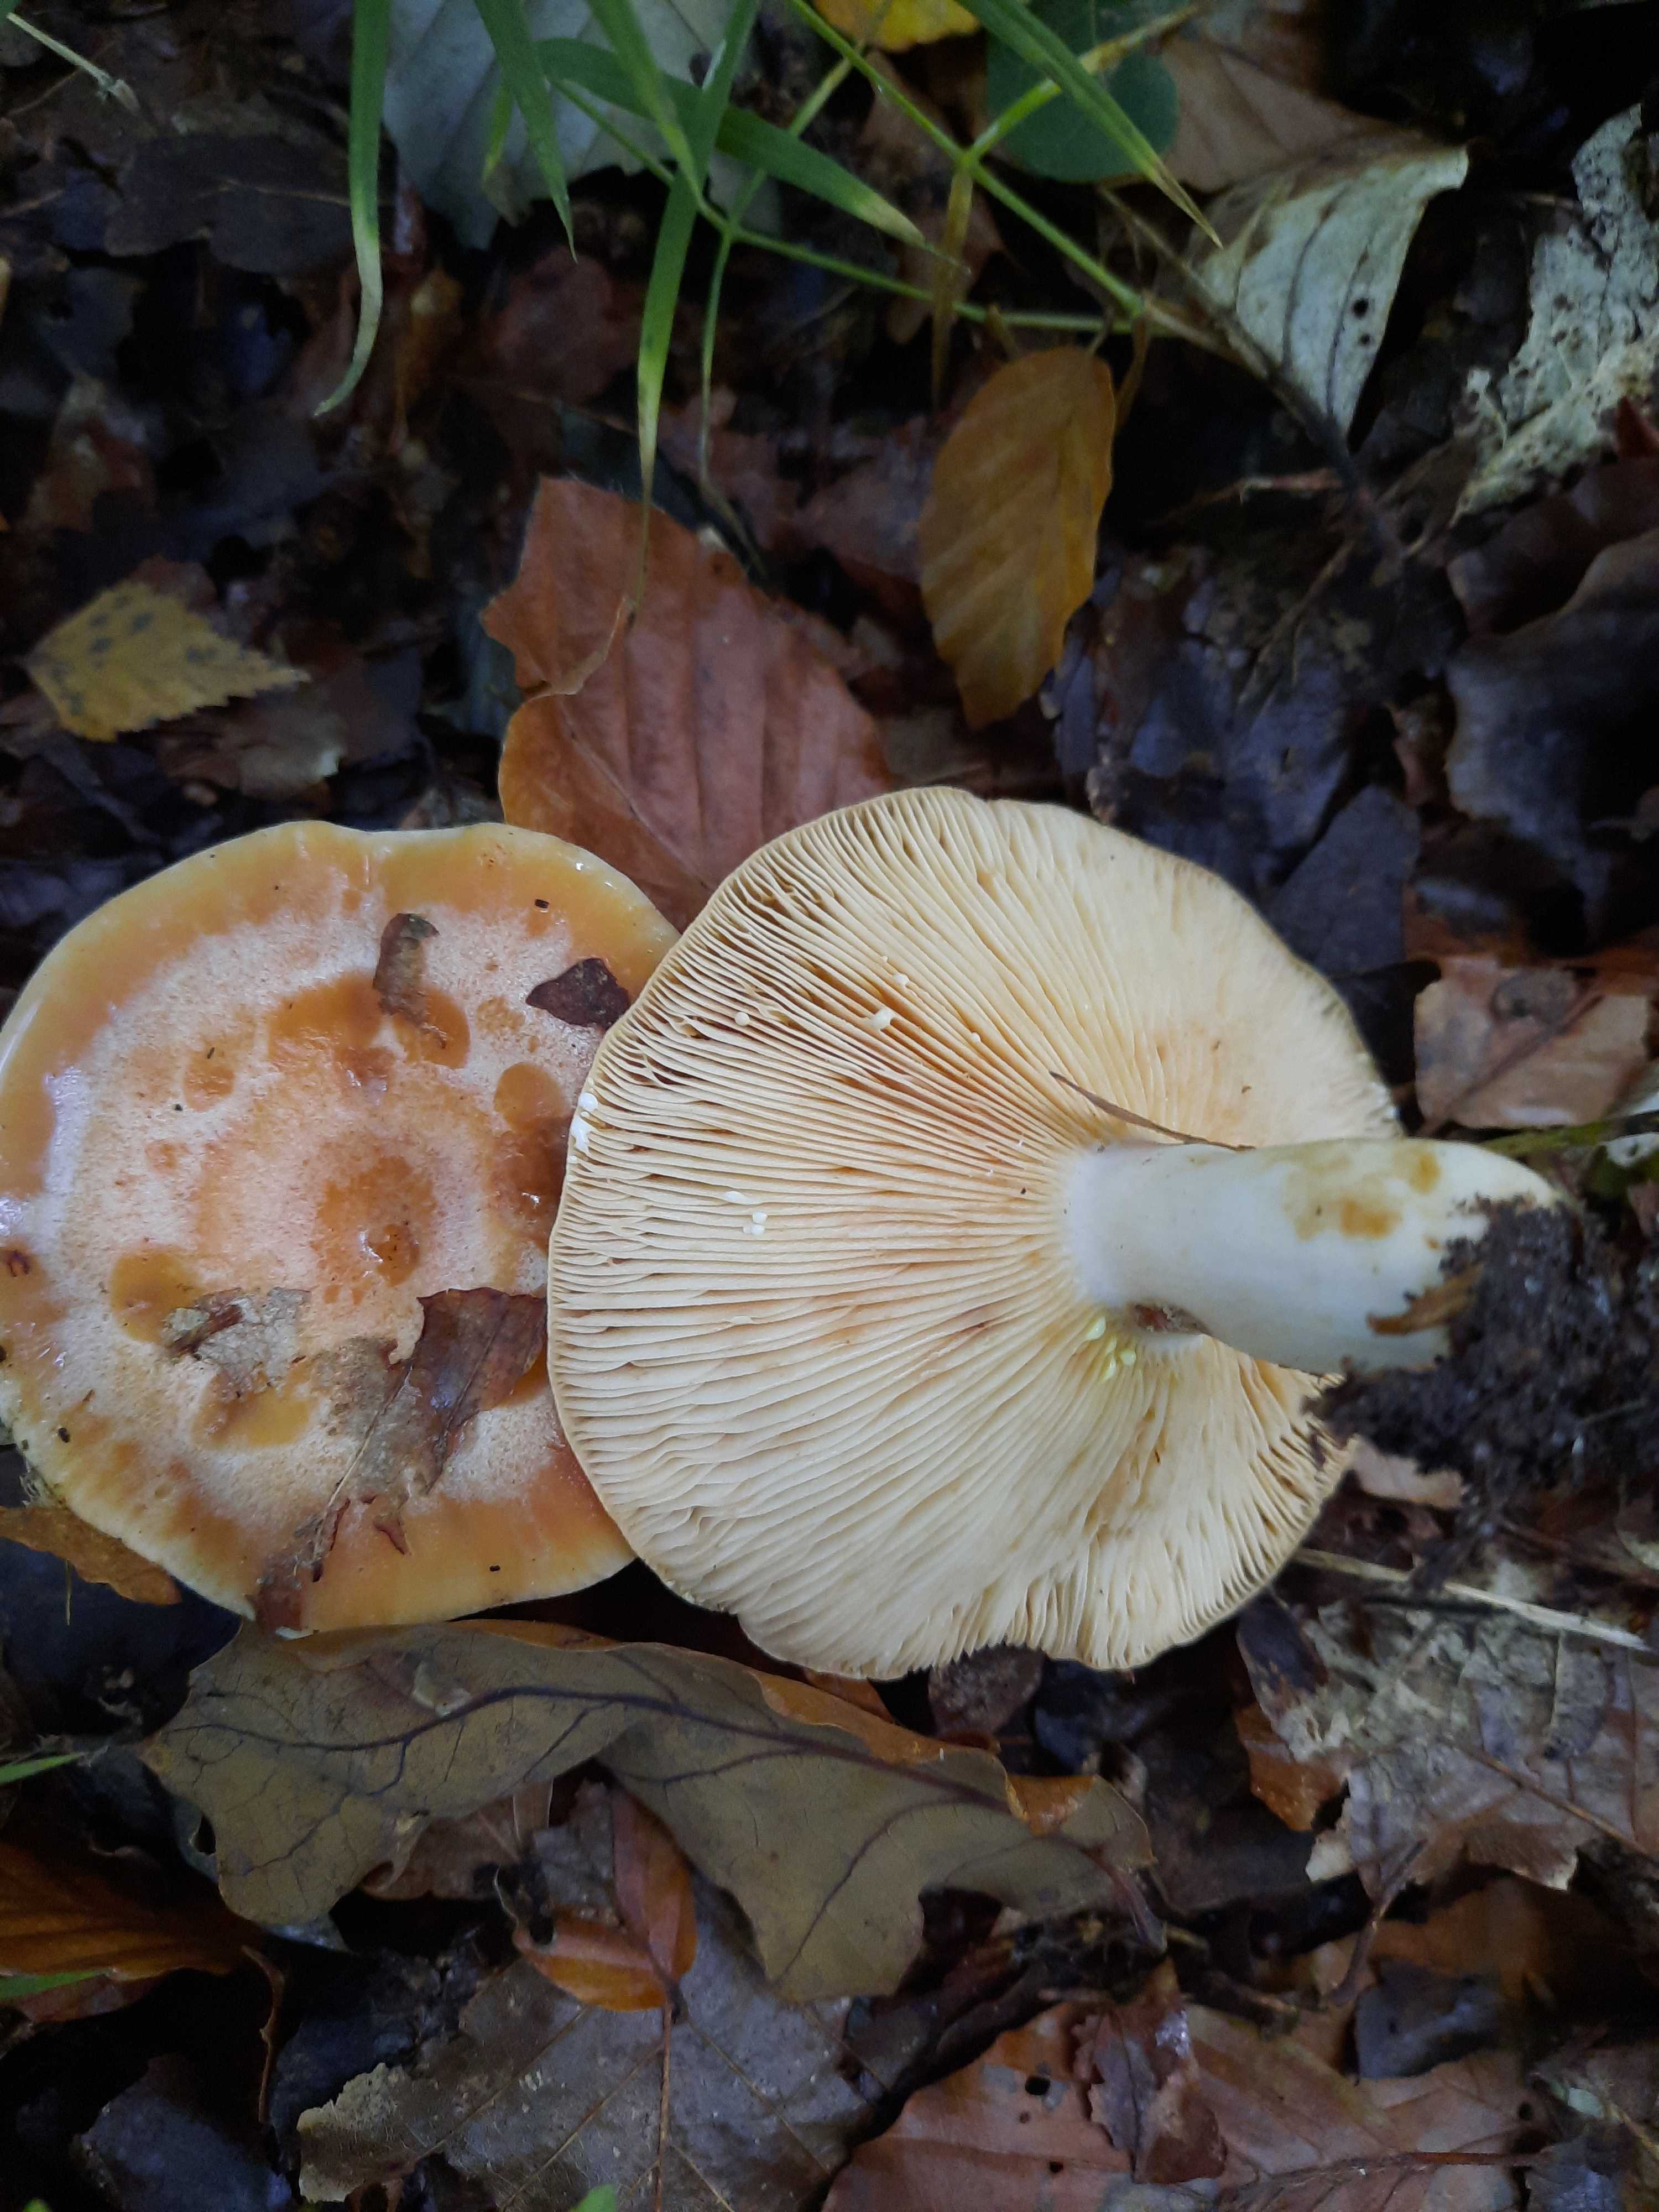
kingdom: Fungi
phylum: Basidiomycota
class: Agaricomycetes
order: Russulales
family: Russulaceae
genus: Lactarius
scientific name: Lactarius chrysorrheus
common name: svovlmælket mælkehat
